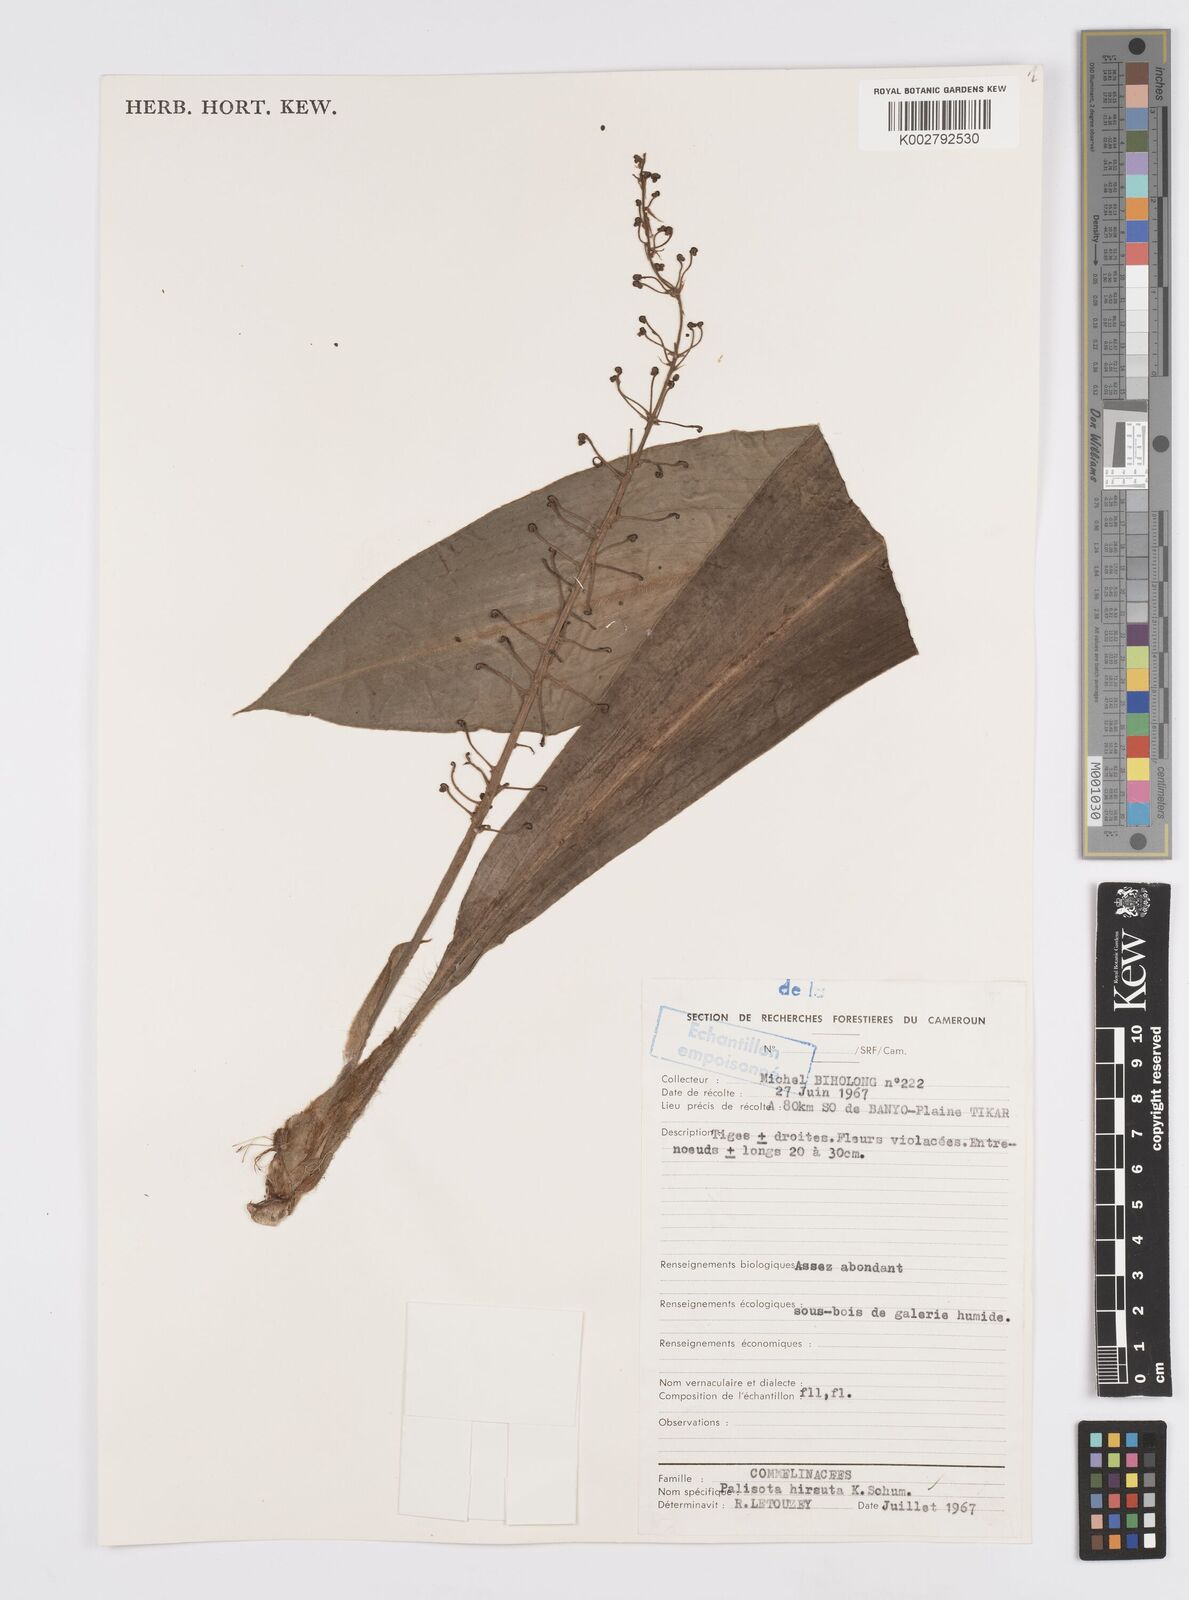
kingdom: Plantae
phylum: Tracheophyta
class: Liliopsida
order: Commelinales
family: Commelinaceae
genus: Palisota
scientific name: Palisota hirsuta
